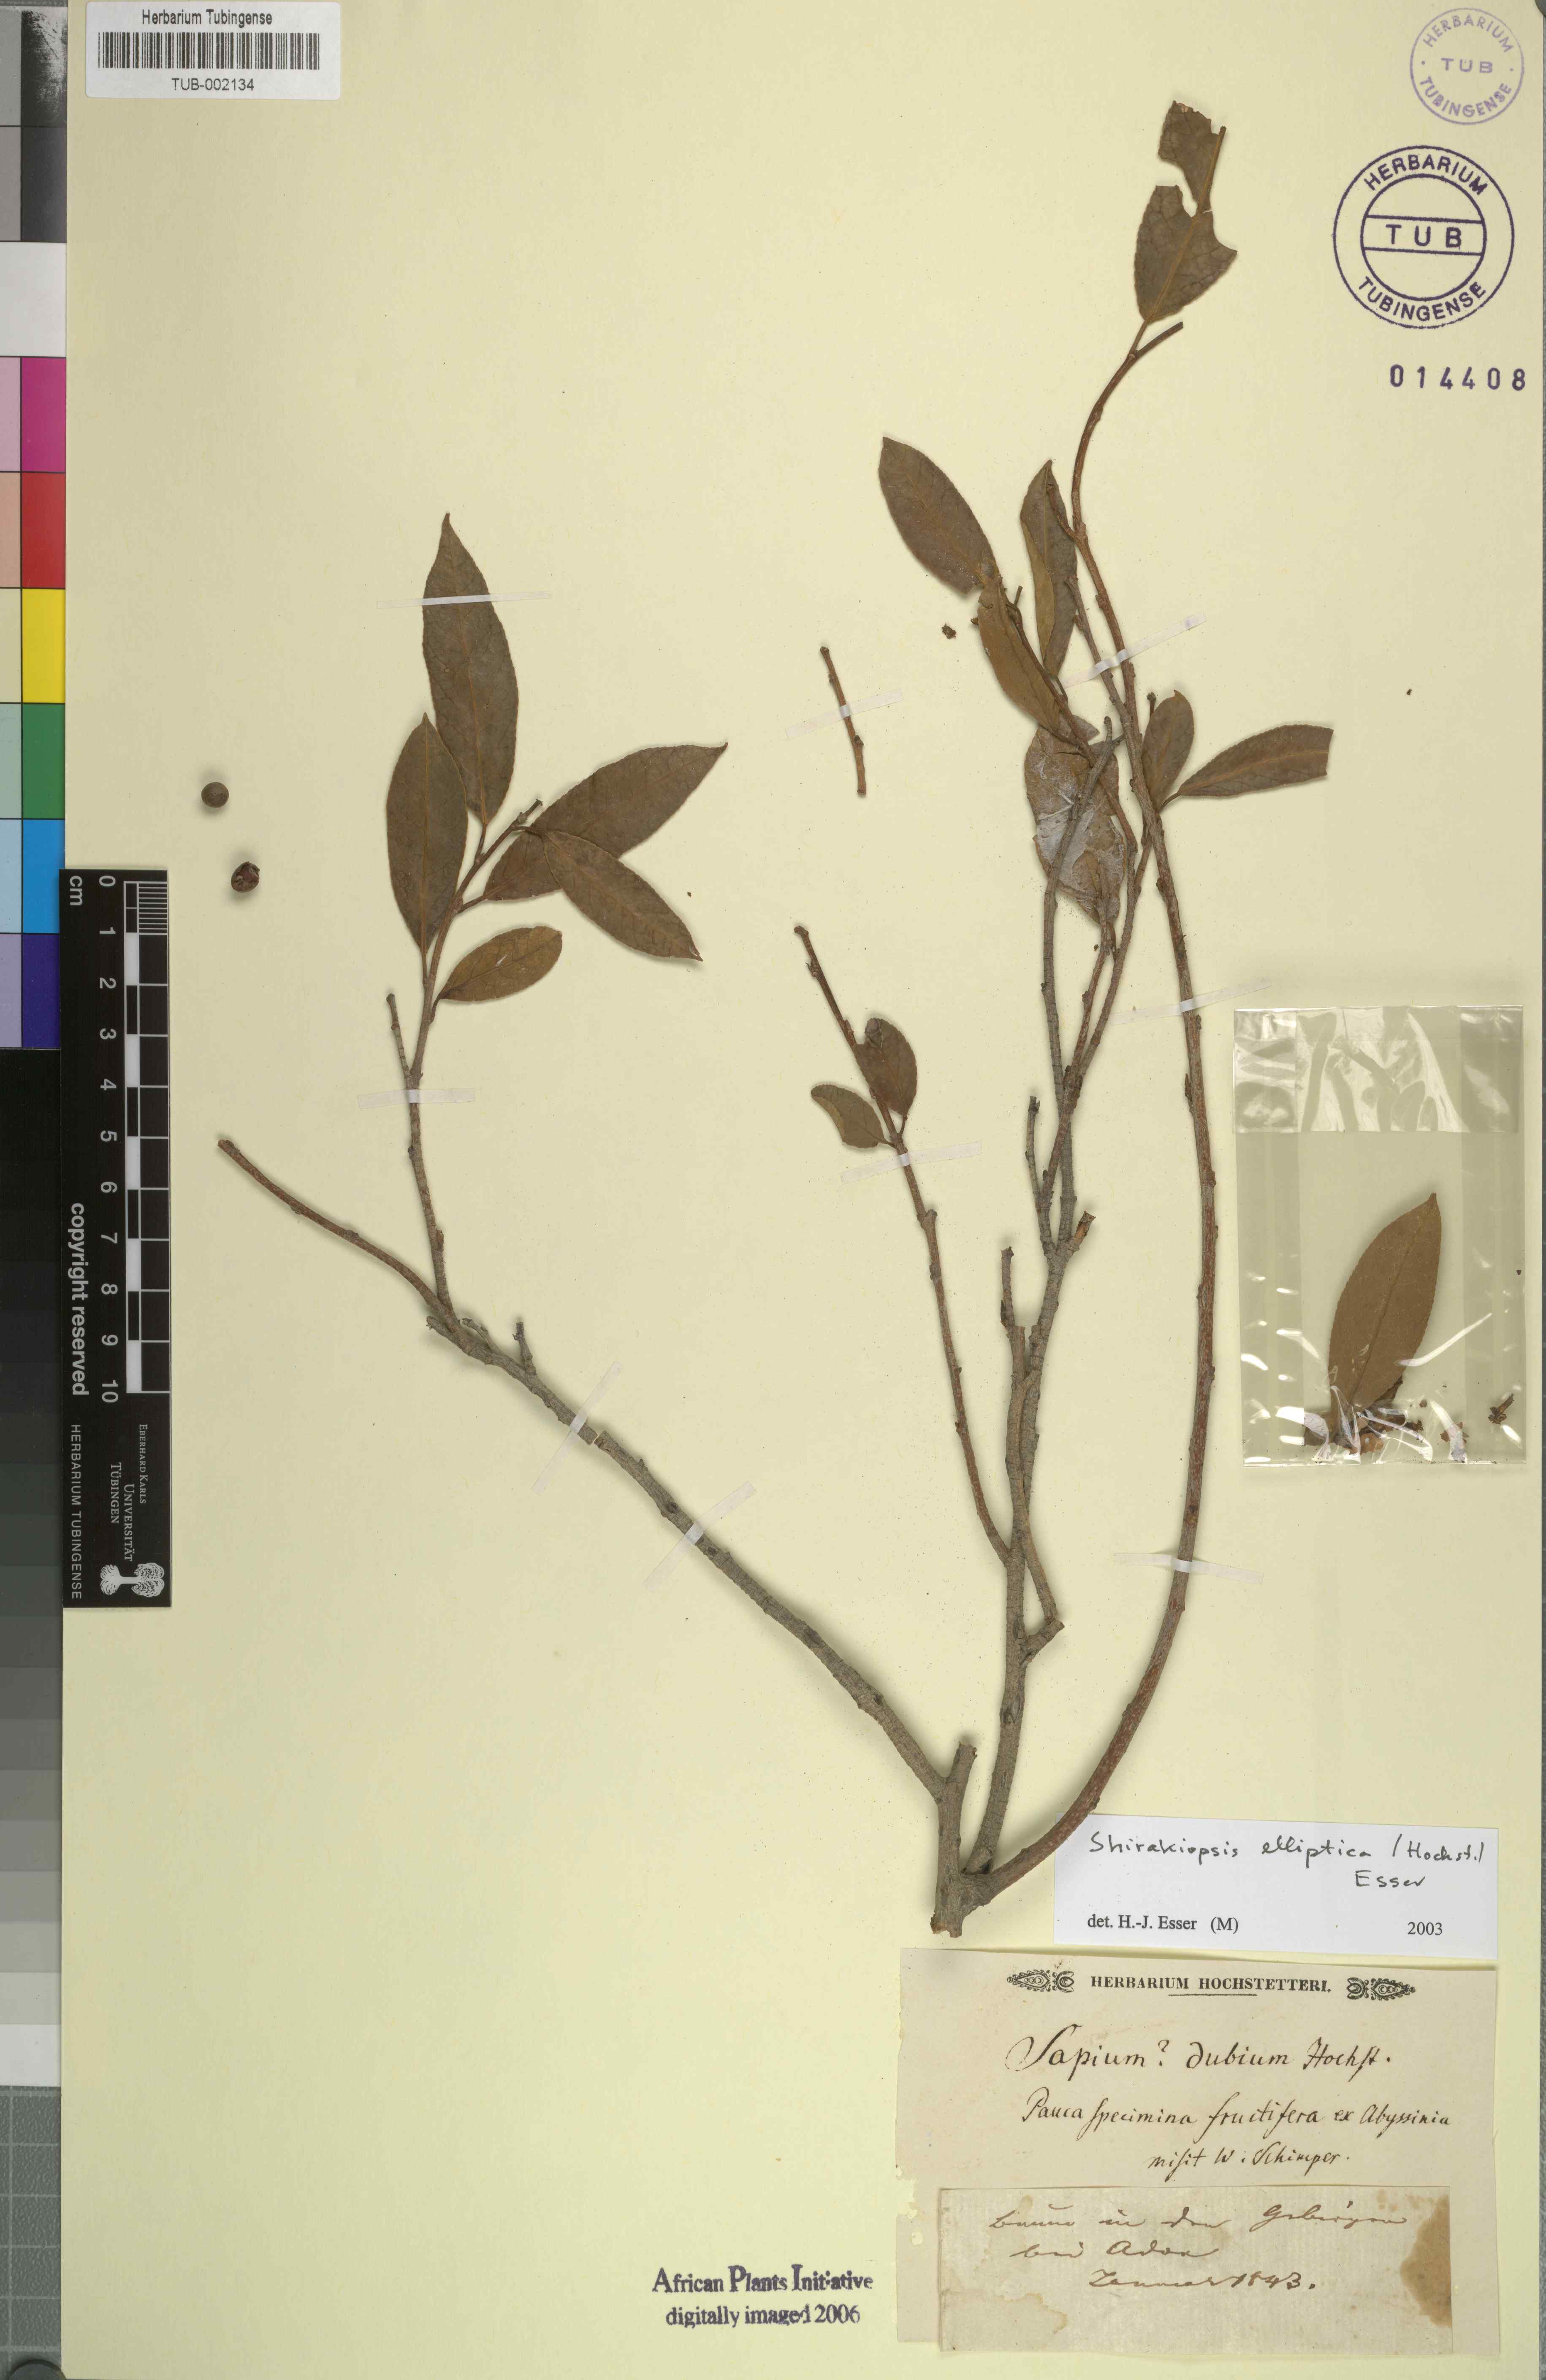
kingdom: Plantae
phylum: Tracheophyta
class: Magnoliopsida
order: Malpighiales
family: Euphorbiaceae
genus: Shirakiopsis
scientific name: Shirakiopsis elliptica
